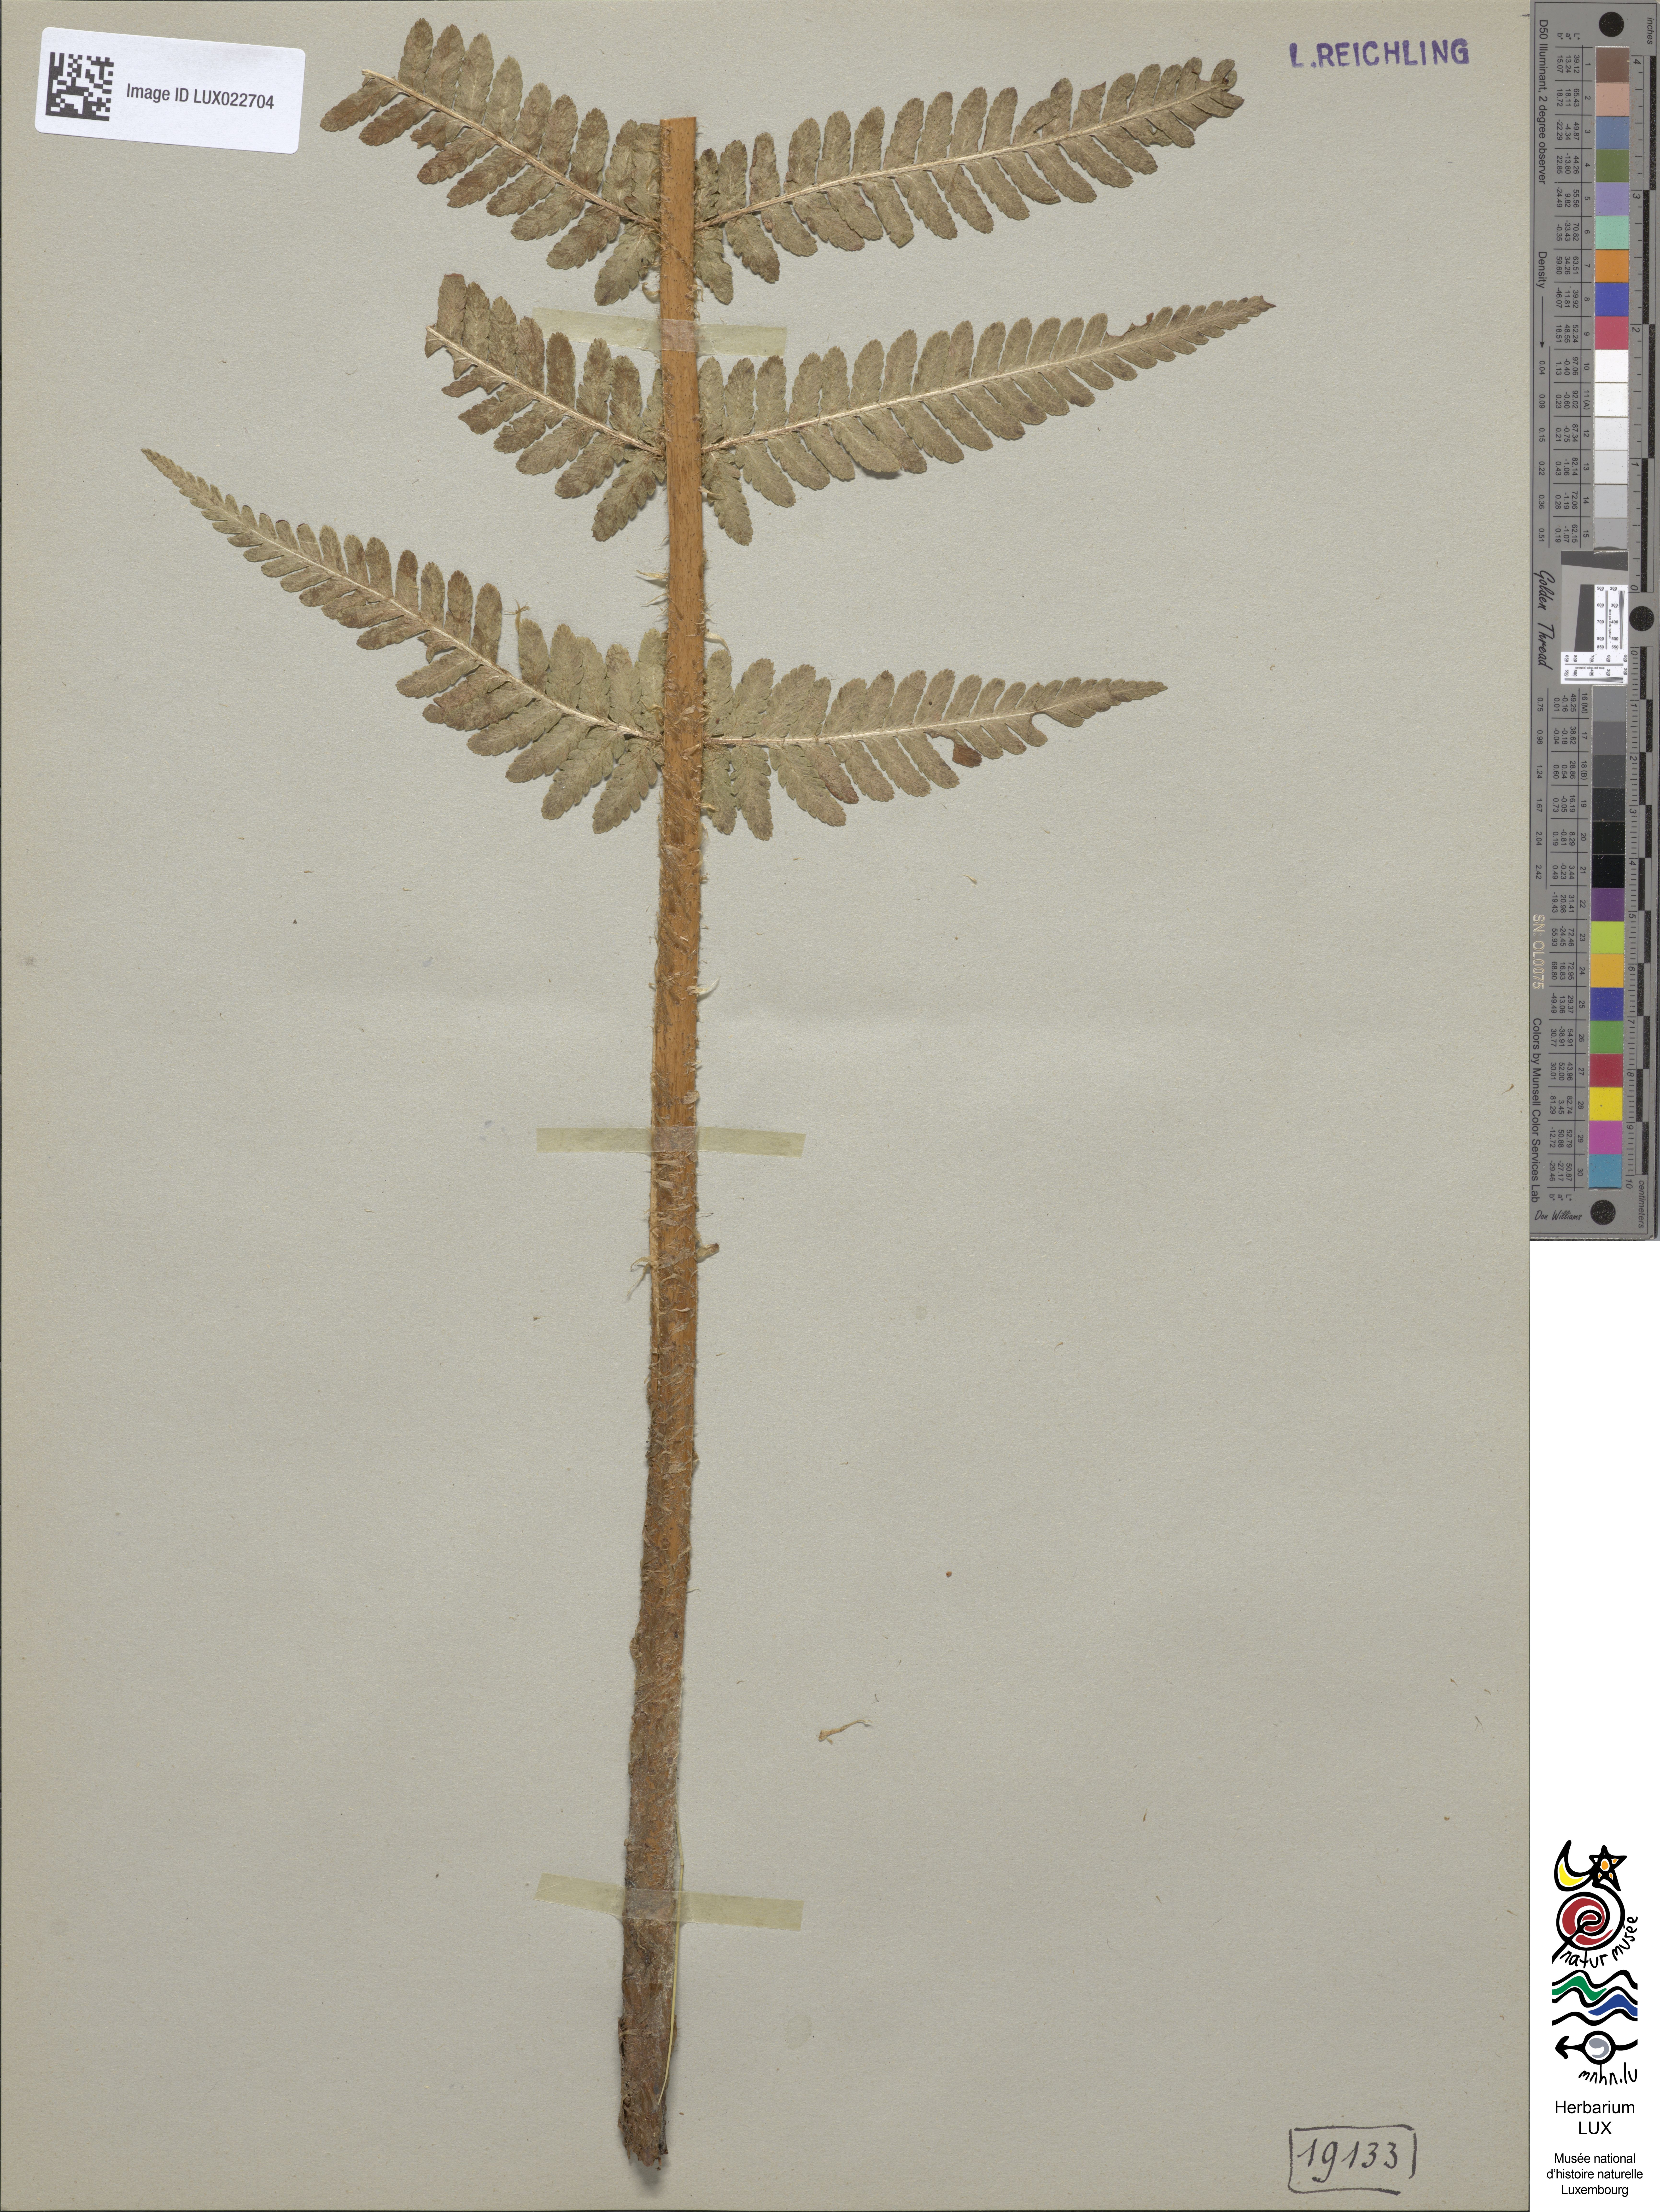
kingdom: Plantae
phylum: Tracheophyta
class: Polypodiopsida
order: Polypodiales
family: Dryopteridaceae
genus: Dryopteris
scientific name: Dryopteris filix-mas
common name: Male fern
